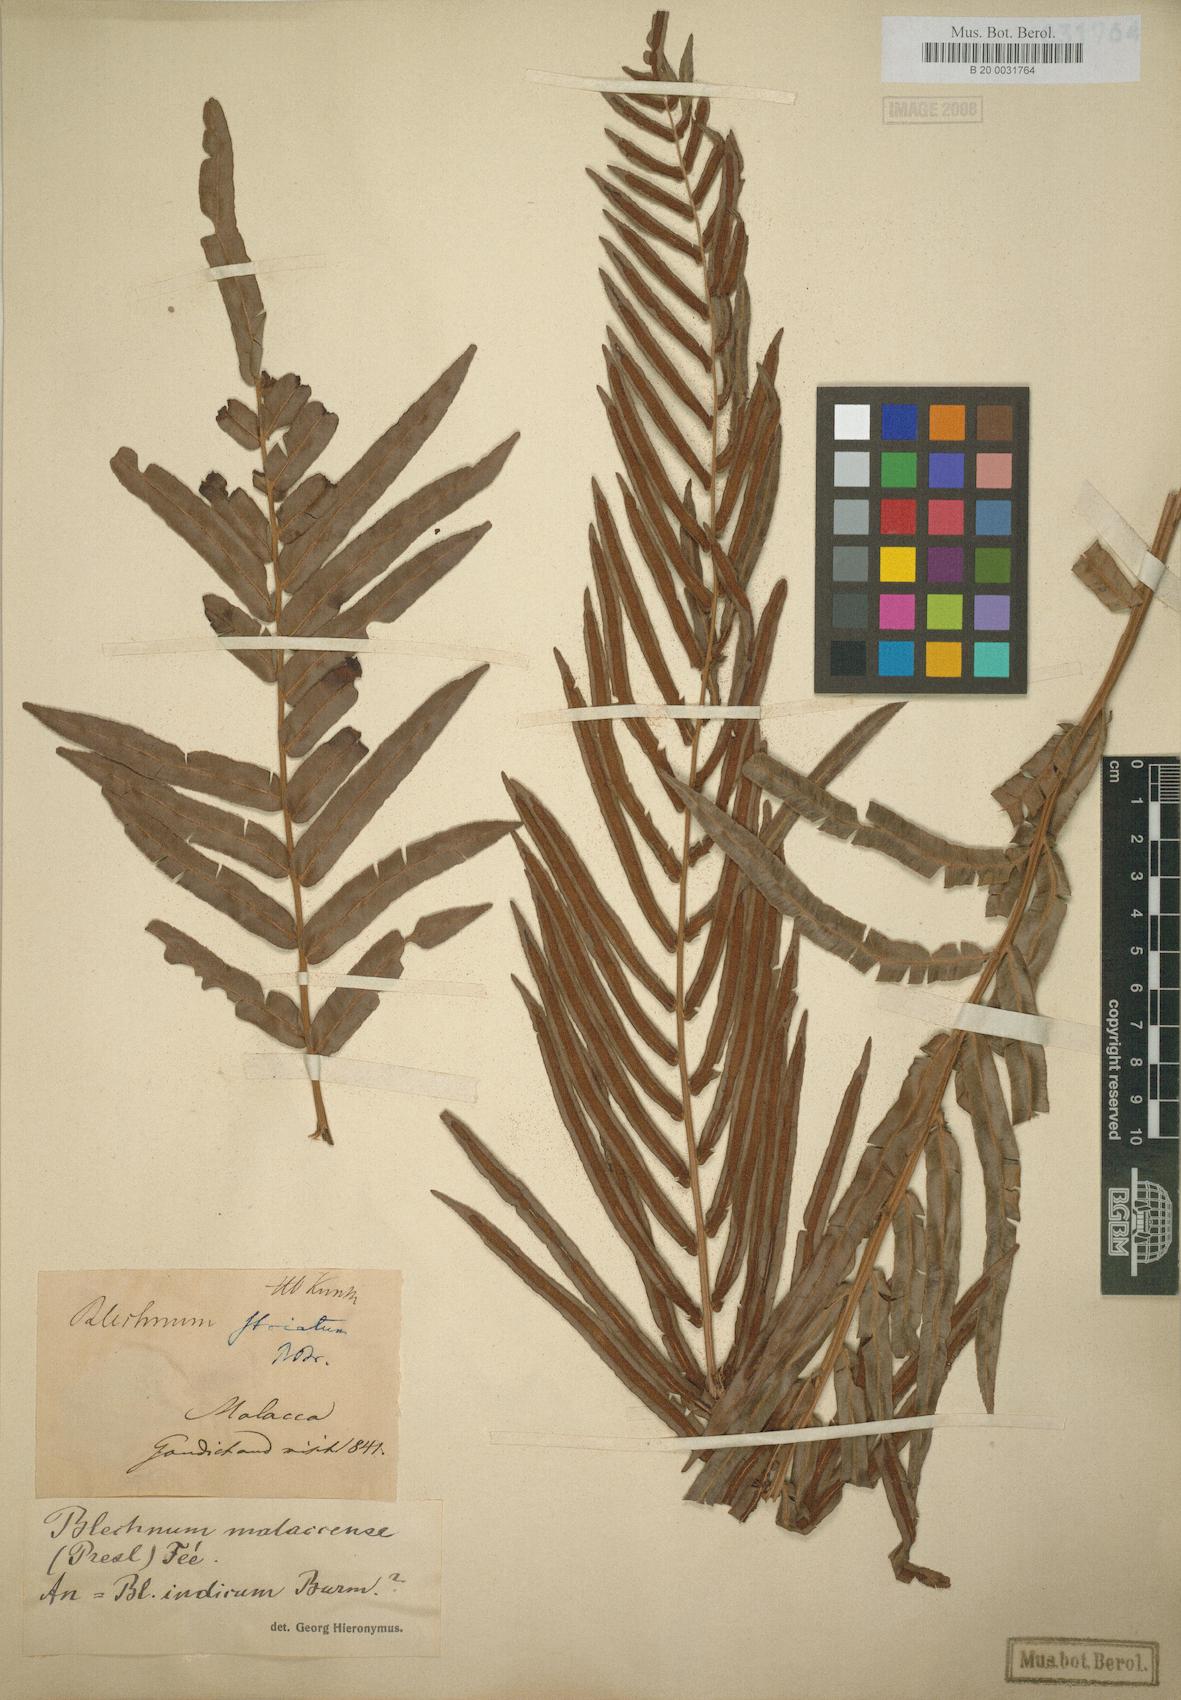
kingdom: Plantae
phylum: Tracheophyta
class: Polypodiopsida
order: Polypodiales
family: Blechnaceae
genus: Telmatoblechnum
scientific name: Telmatoblechnum indicum
